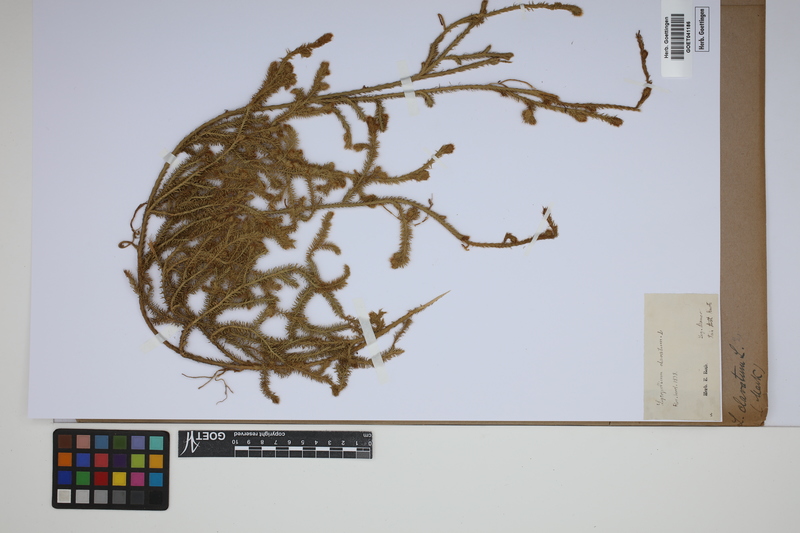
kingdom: Plantae
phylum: Tracheophyta
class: Lycopodiopsida
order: Lycopodiales
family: Lycopodiaceae
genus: Lycopodium
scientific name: Lycopodium clavatum
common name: Stag's-horn clubmoss
